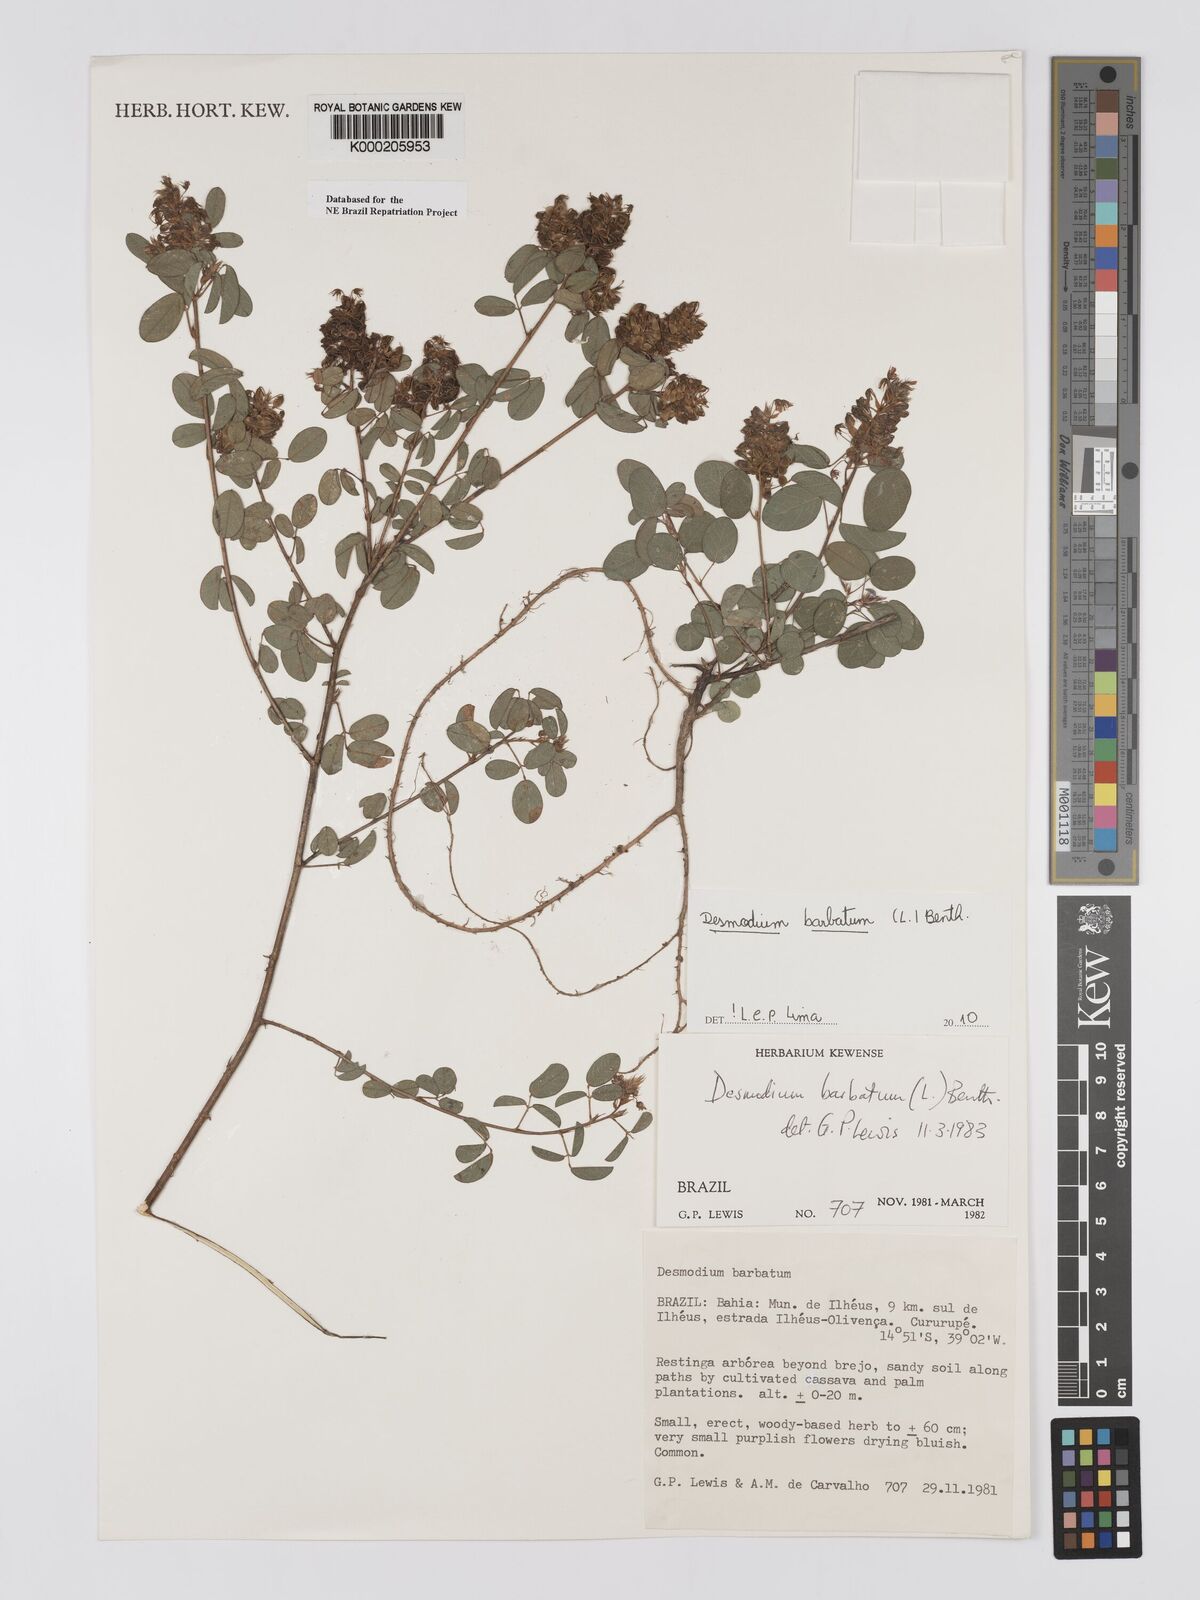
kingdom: Plantae
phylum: Tracheophyta
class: Magnoliopsida
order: Fabales
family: Fabaceae
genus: Grona
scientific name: Grona barbata
